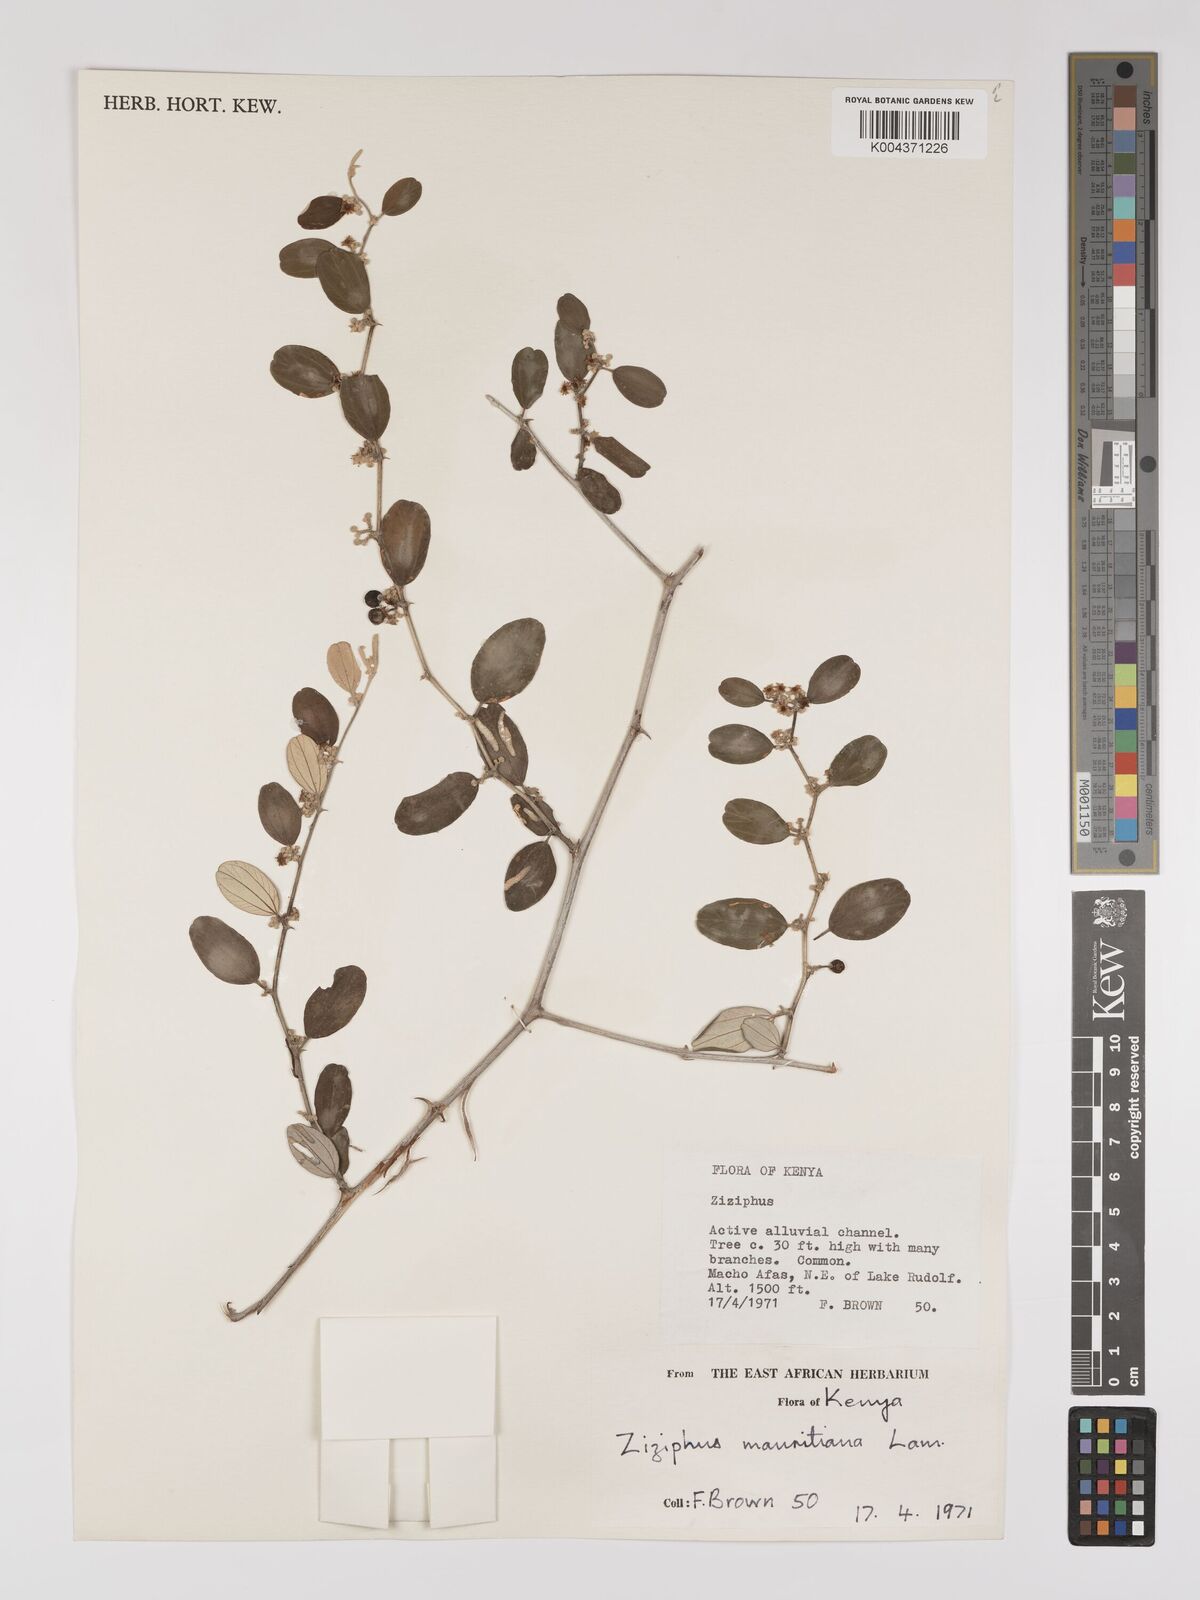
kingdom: Plantae
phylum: Tracheophyta
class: Magnoliopsida
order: Rosales
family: Rhamnaceae
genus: Ziziphus
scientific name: Ziziphus mauritiana
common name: Indian jujube
